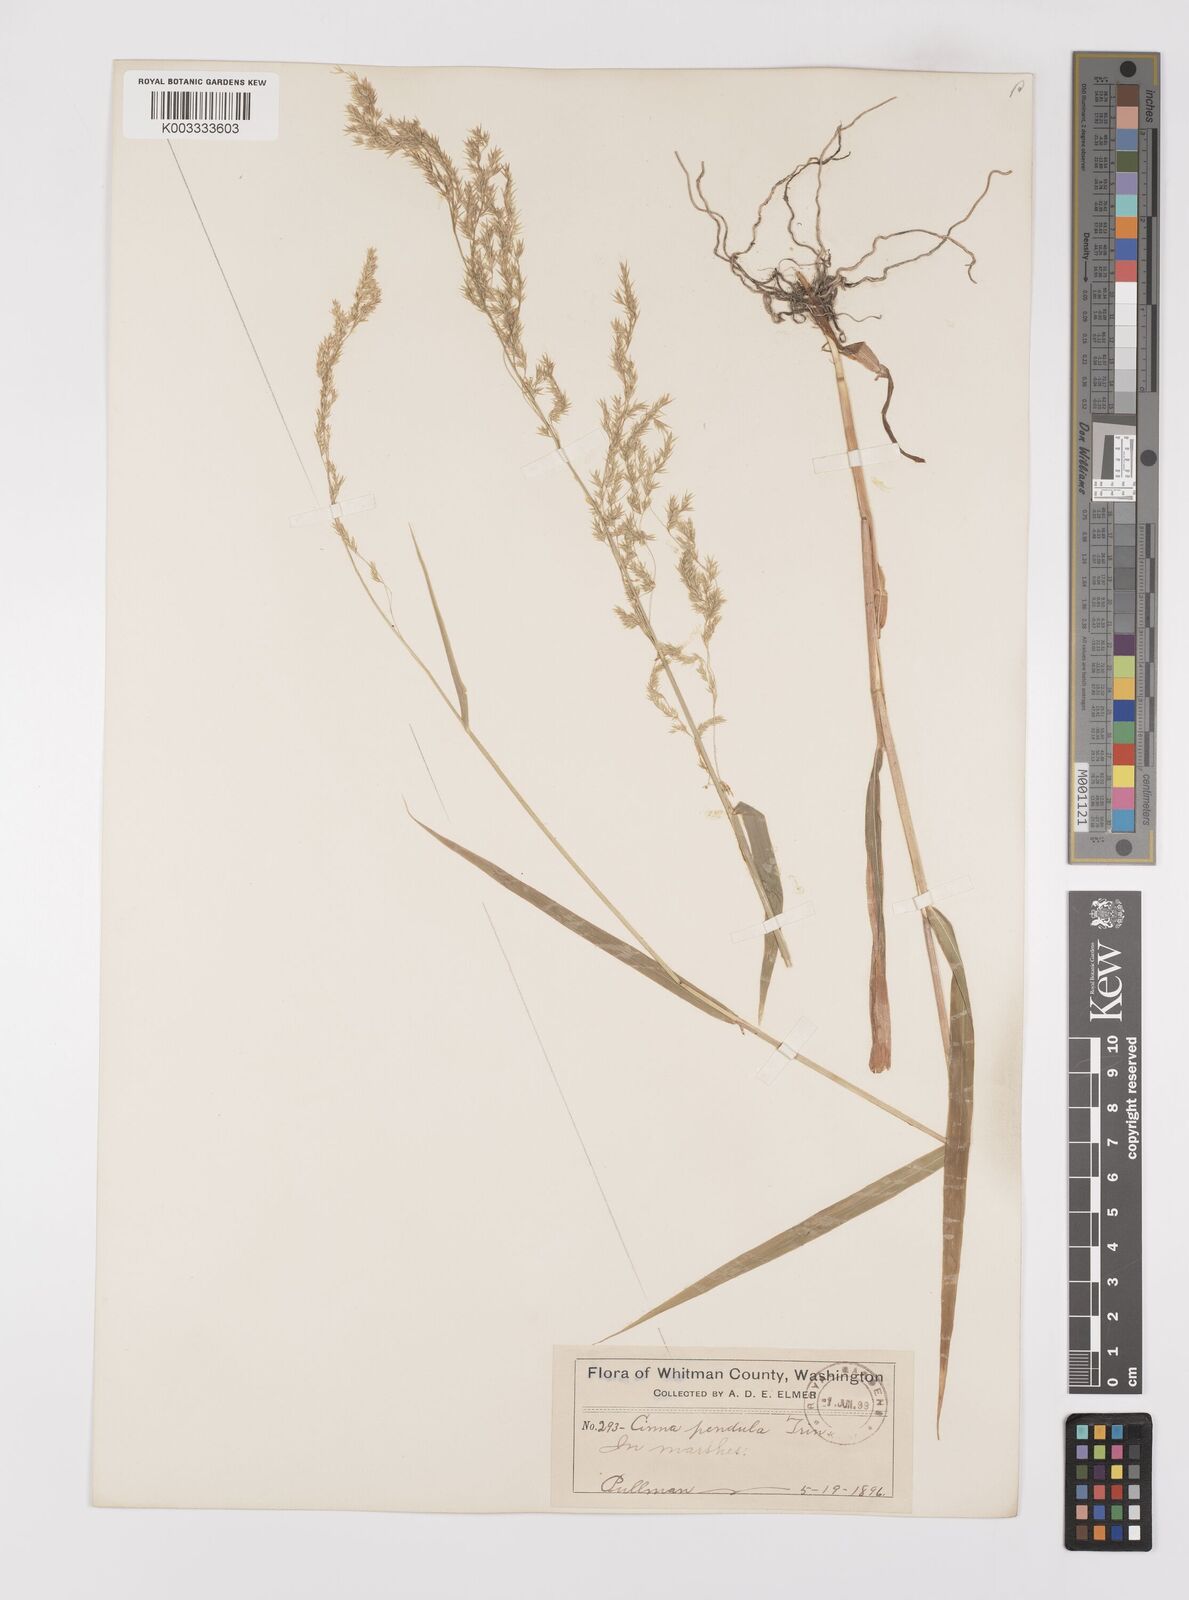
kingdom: Plantae
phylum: Tracheophyta
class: Liliopsida
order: Poales
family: Poaceae
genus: Cinna
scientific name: Cinna latifolia
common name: Drooping woodreed
